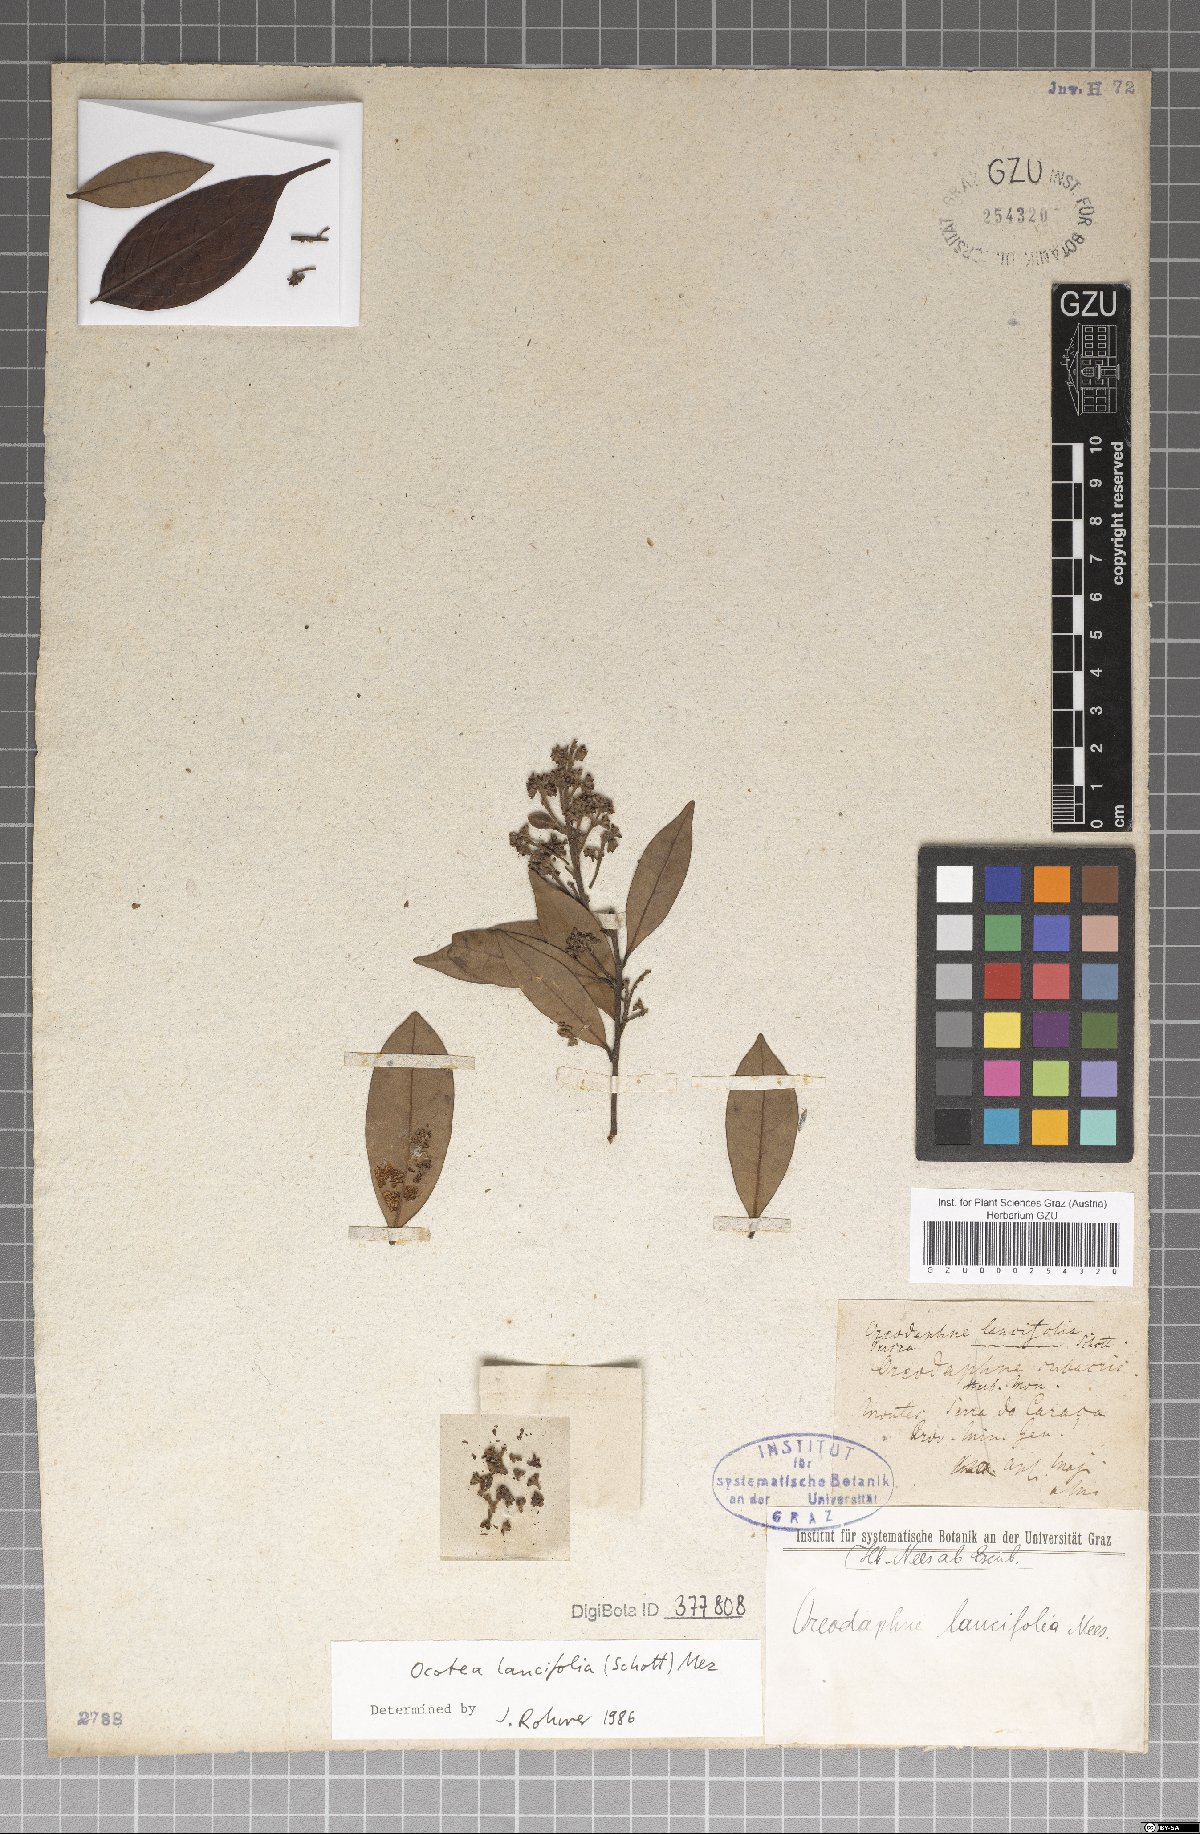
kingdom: Plantae
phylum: Tracheophyta
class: Magnoliopsida
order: Laurales
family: Lauraceae
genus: Ocotea
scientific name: Ocotea lancifolia
